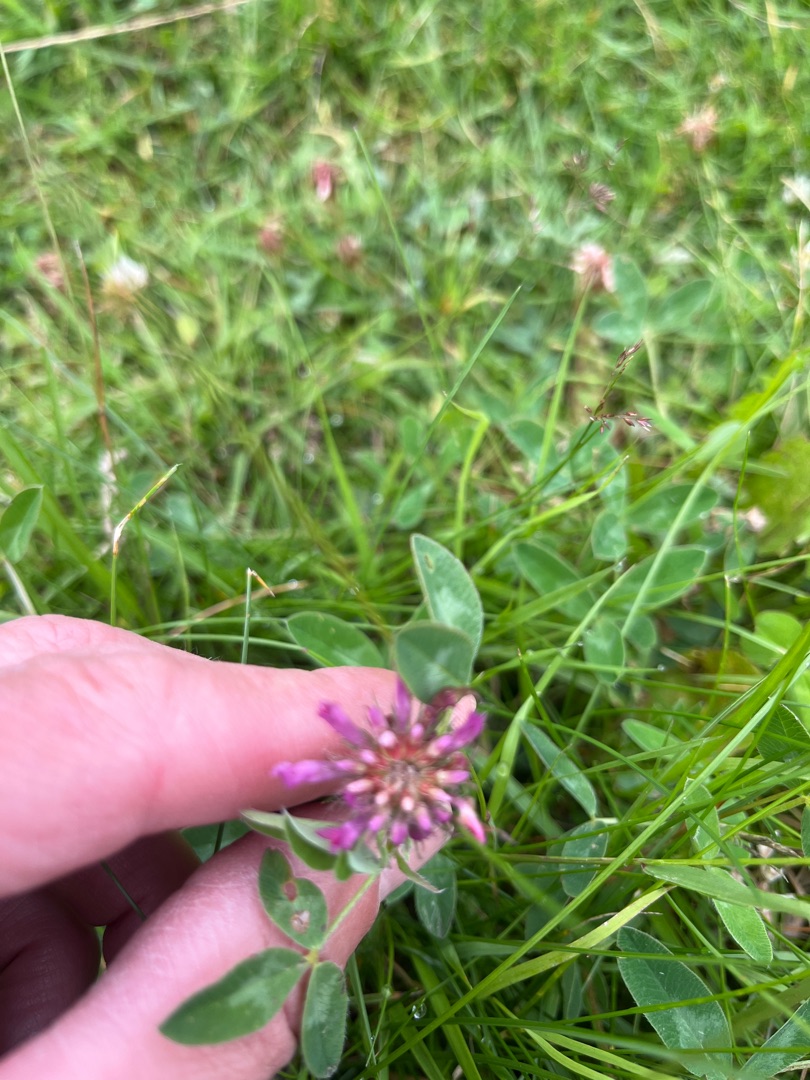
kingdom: Plantae
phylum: Tracheophyta
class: Magnoliopsida
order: Fabales
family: Fabaceae
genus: Trifolium
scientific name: Trifolium pratense
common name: Rød-kløver
